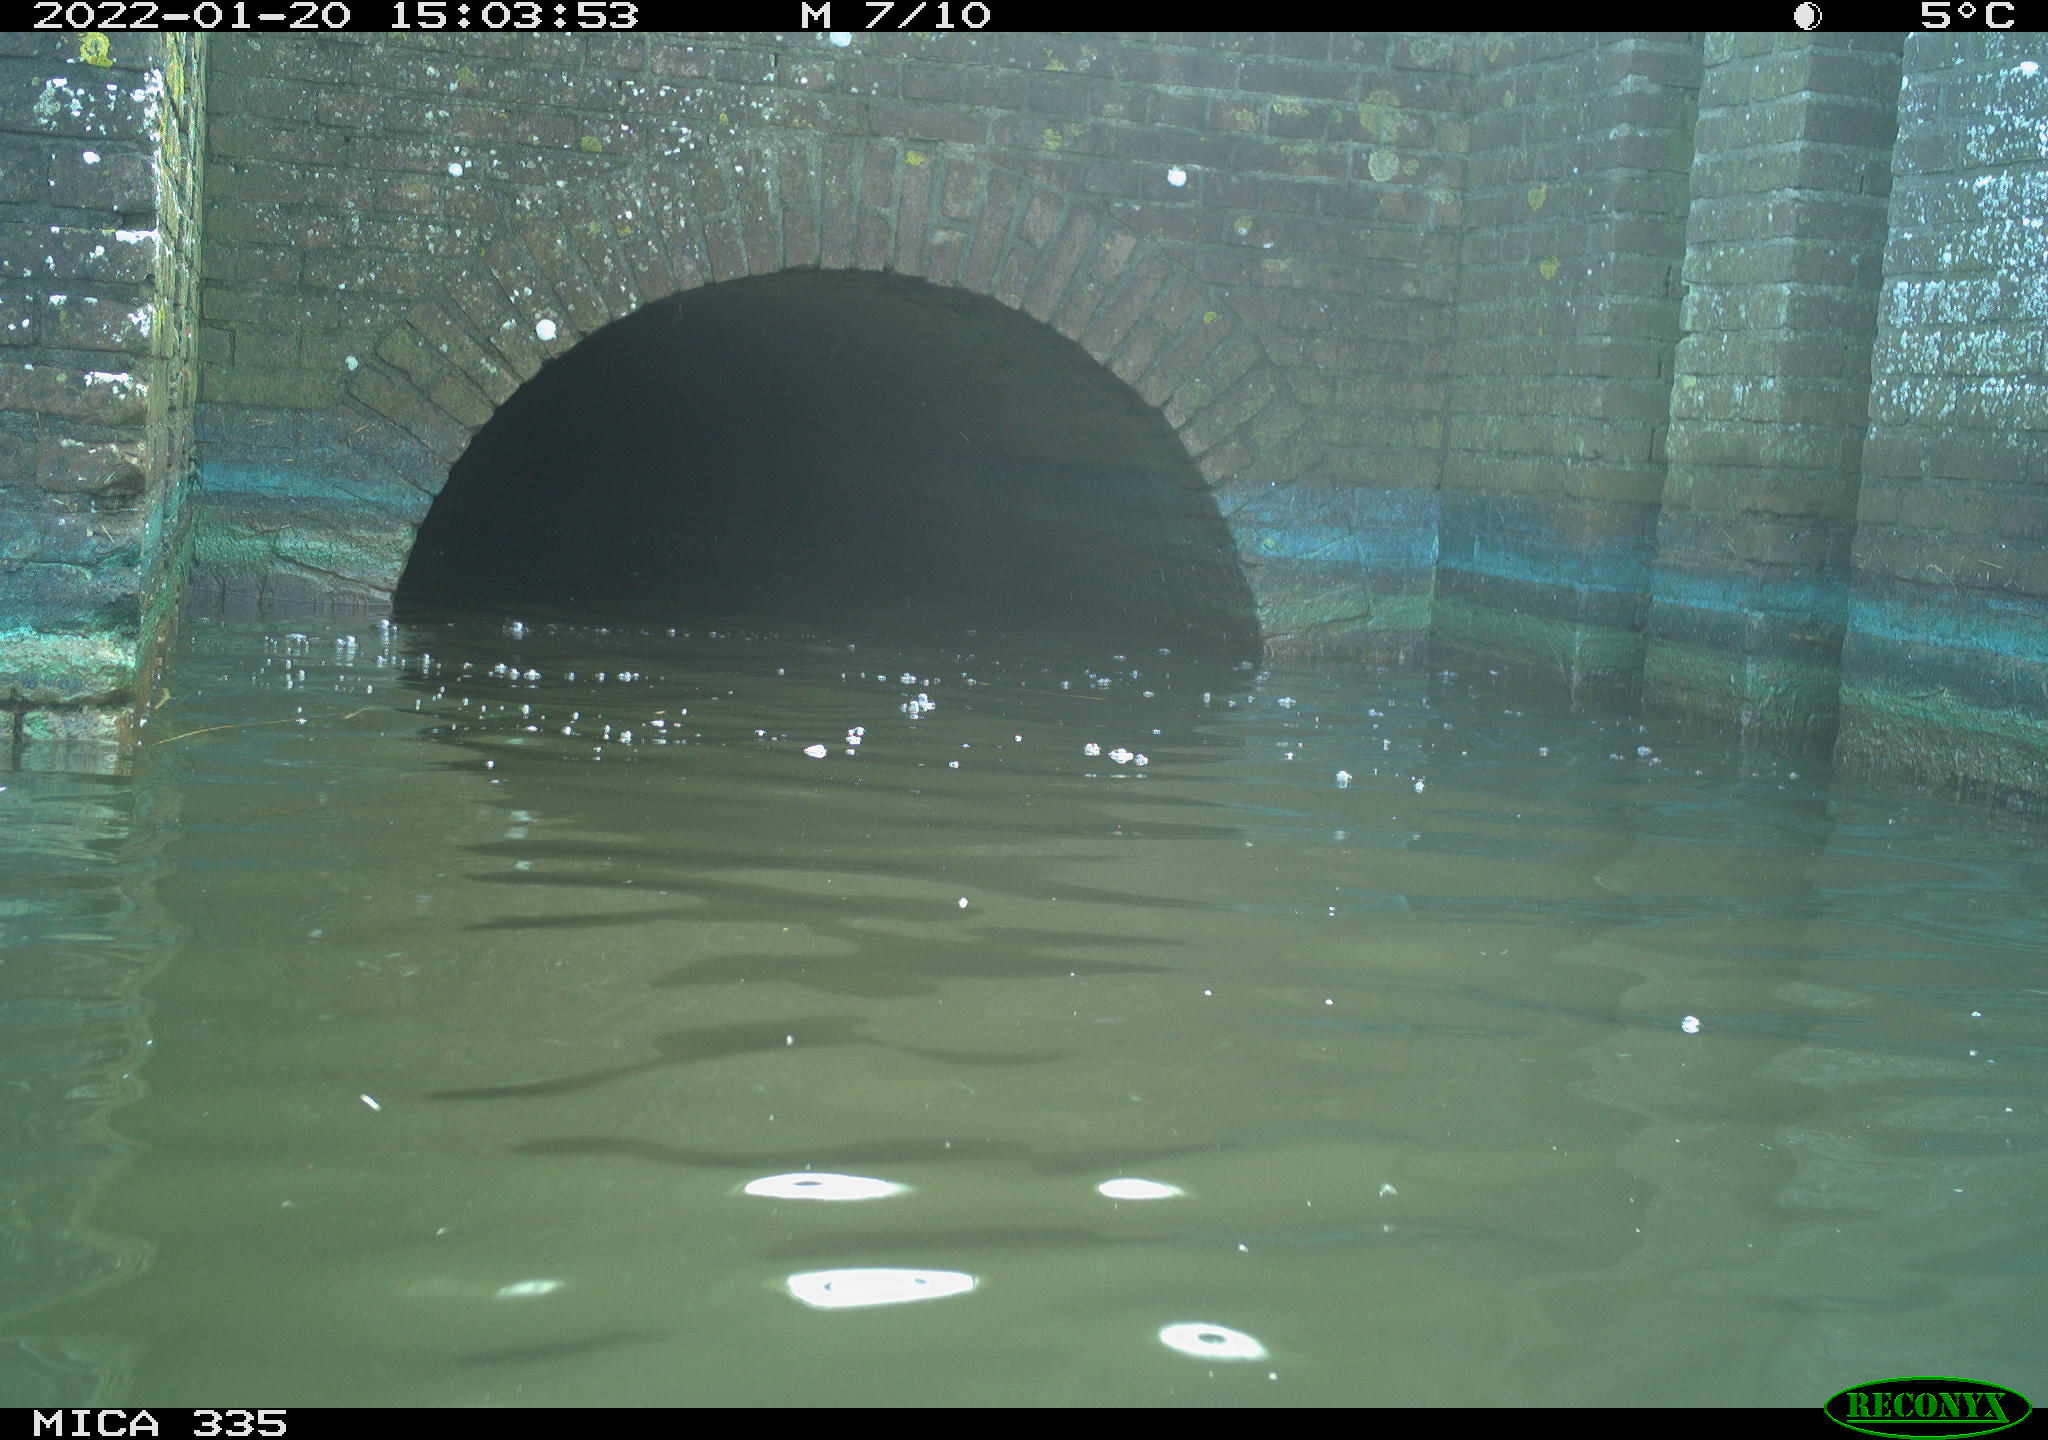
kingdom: Animalia
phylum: Chordata
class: Aves
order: Anseriformes
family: Anatidae
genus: Anas
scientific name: Anas platyrhynchos
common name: Mallard
